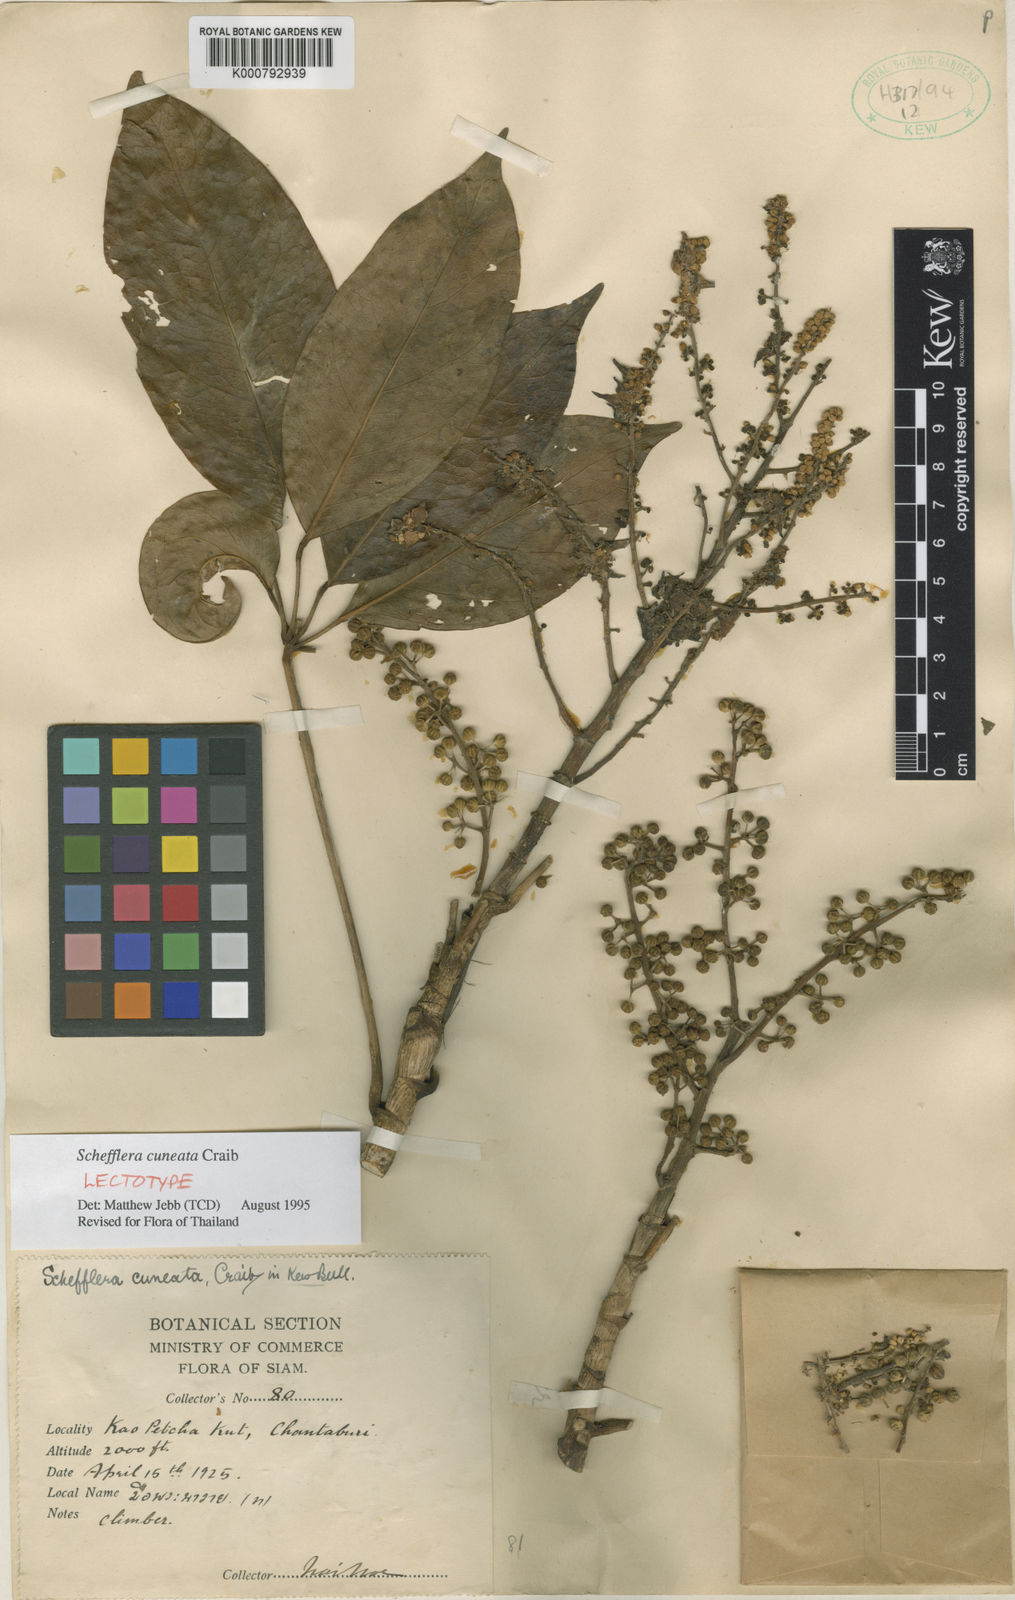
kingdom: Plantae
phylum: Tracheophyta
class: Magnoliopsida
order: Apiales
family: Araliaceae
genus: Heptapleurum
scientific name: Heptapleurum cuneatum
